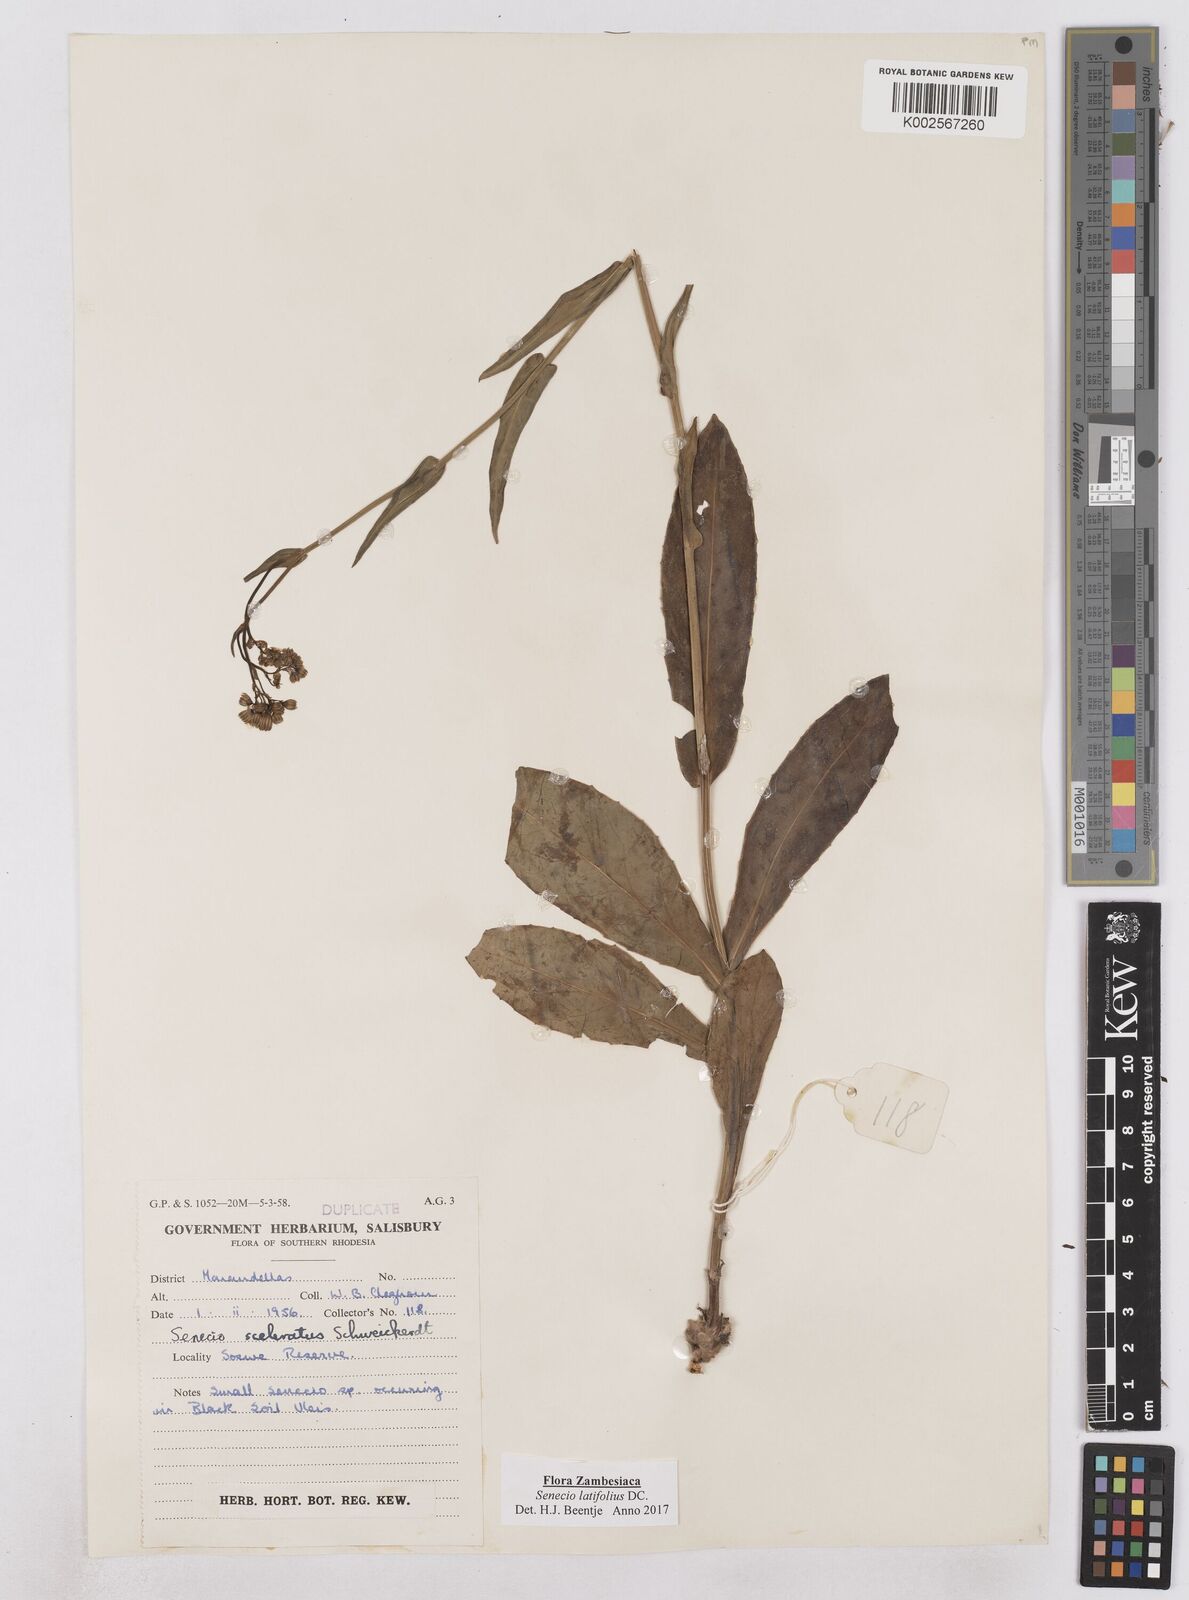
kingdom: Plantae
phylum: Tracheophyta
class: Magnoliopsida
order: Asterales
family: Asteraceae
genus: Senecio
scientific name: Senecio latifolius
